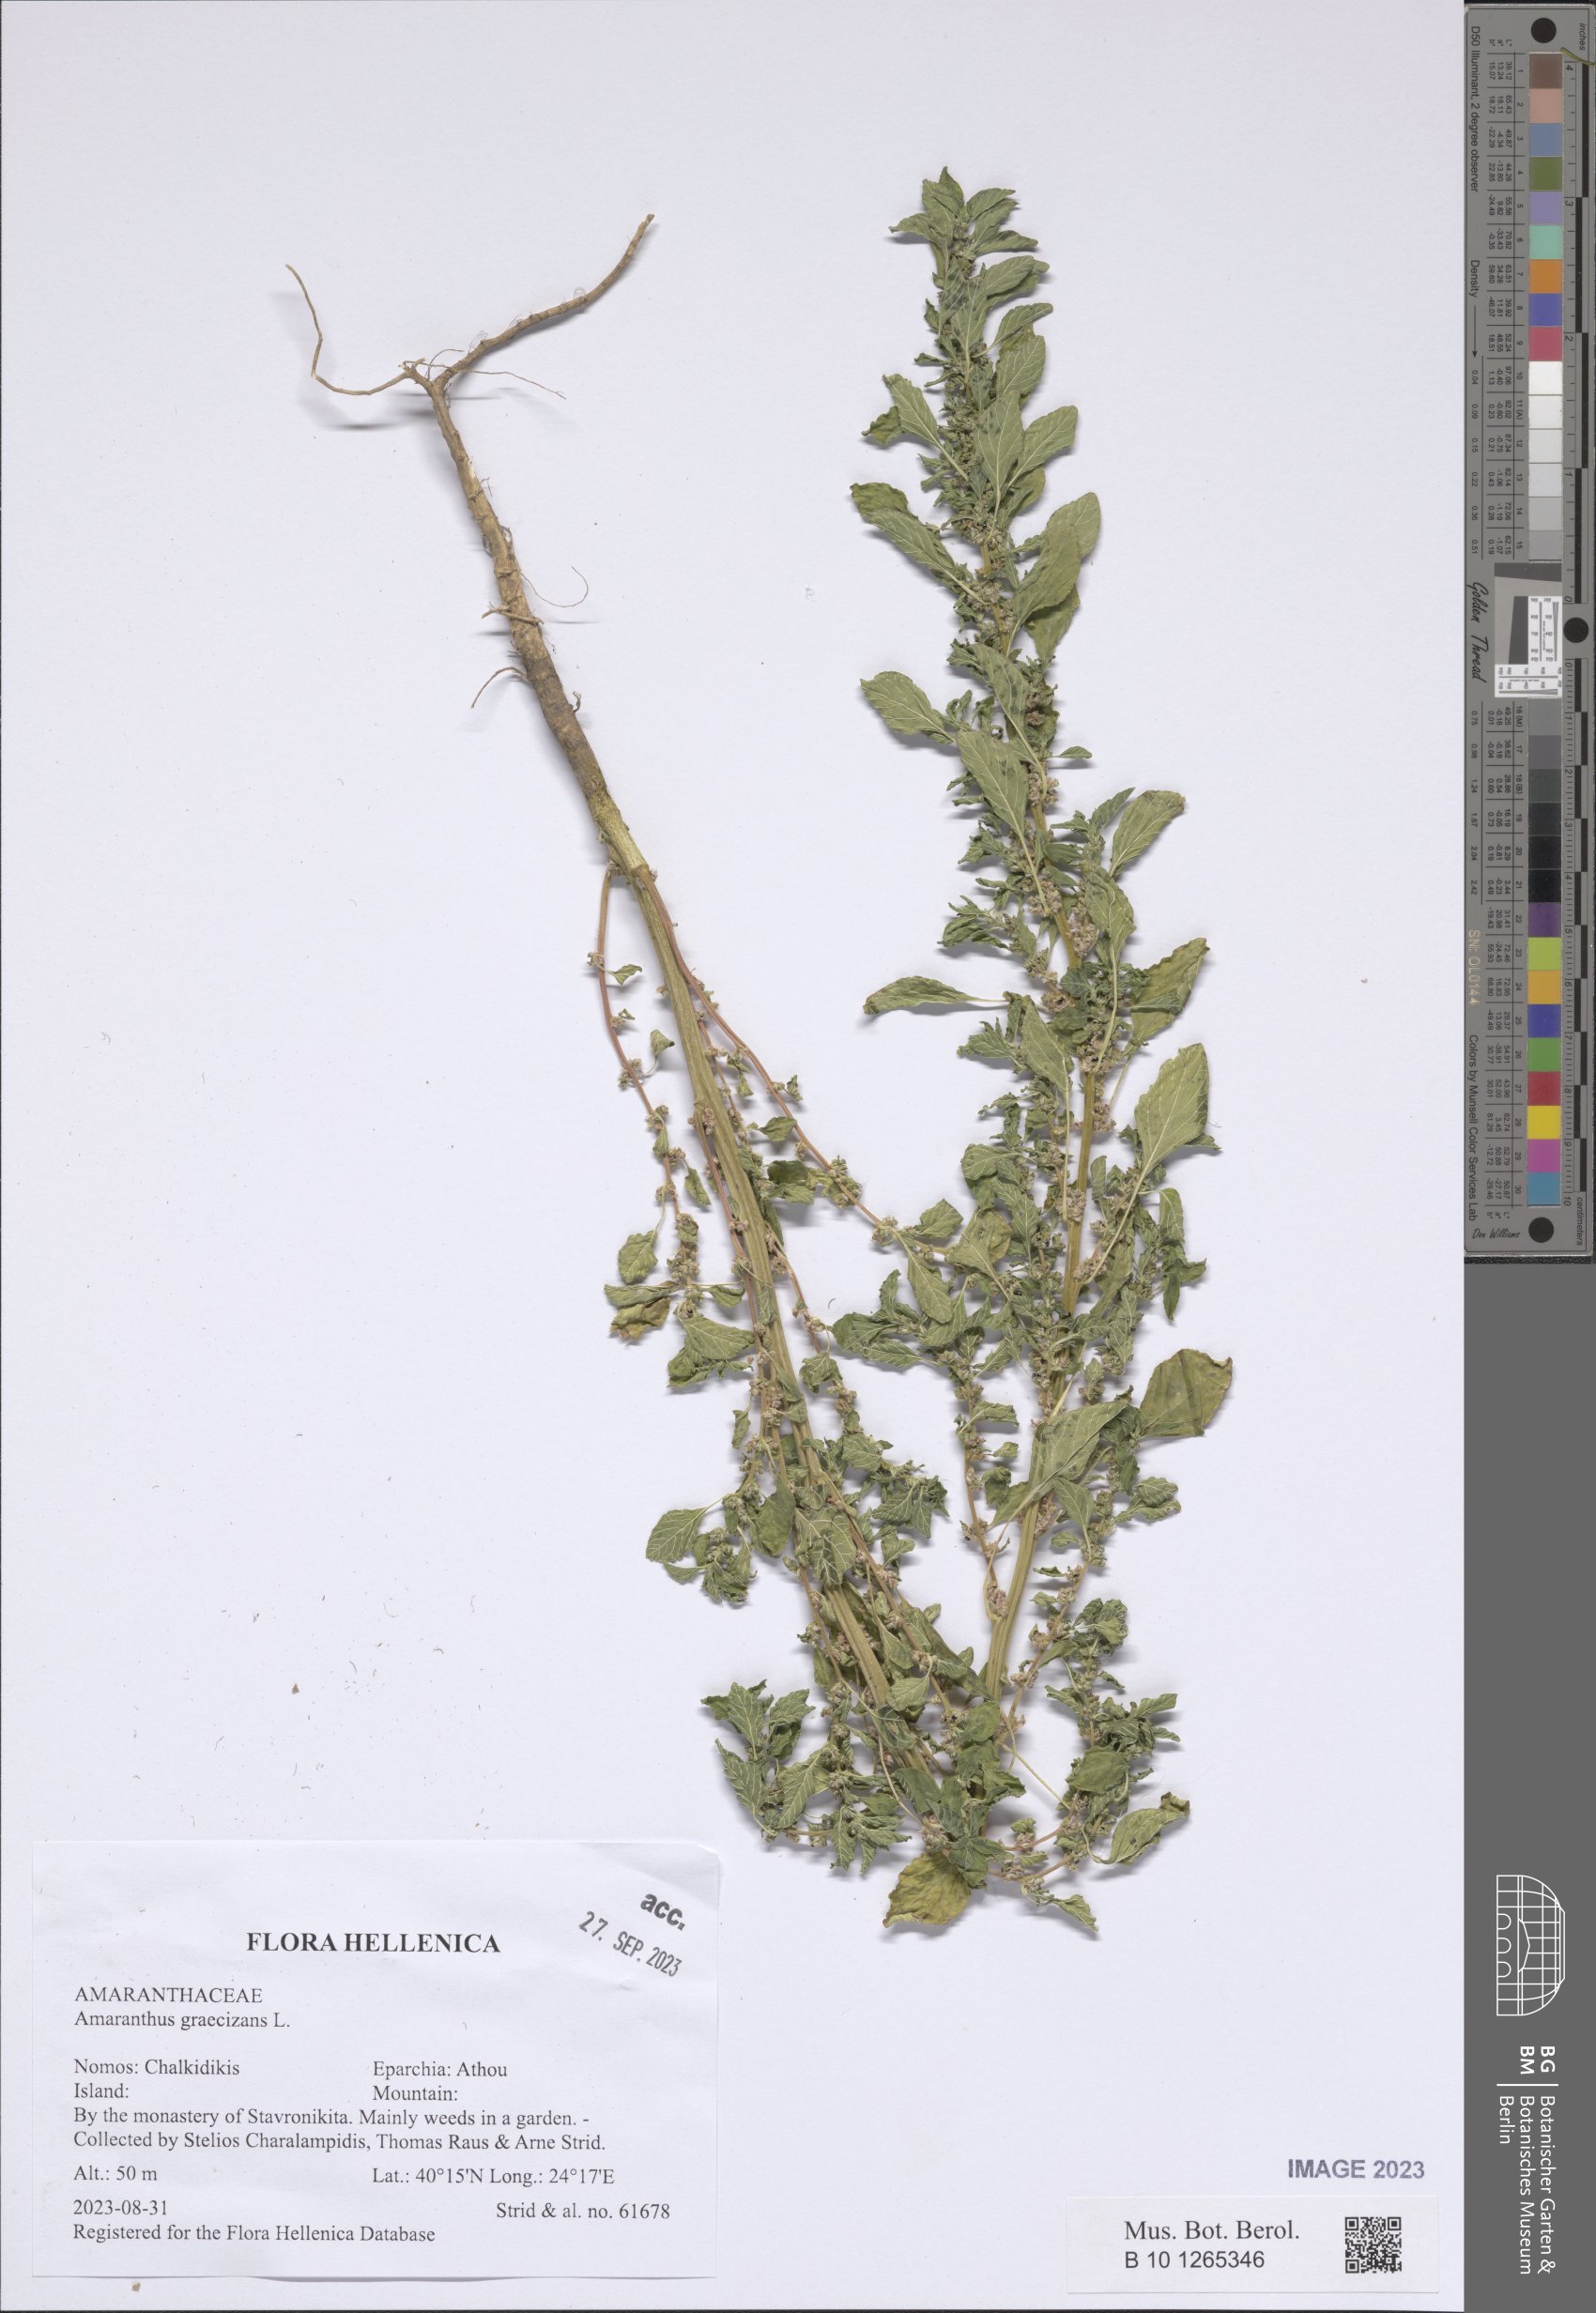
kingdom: Plantae
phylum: Tracheophyta
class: Magnoliopsida
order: Caryophyllales
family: Amaranthaceae
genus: Amaranthus
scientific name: Amaranthus graecizans
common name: Mediterranean amaranth
